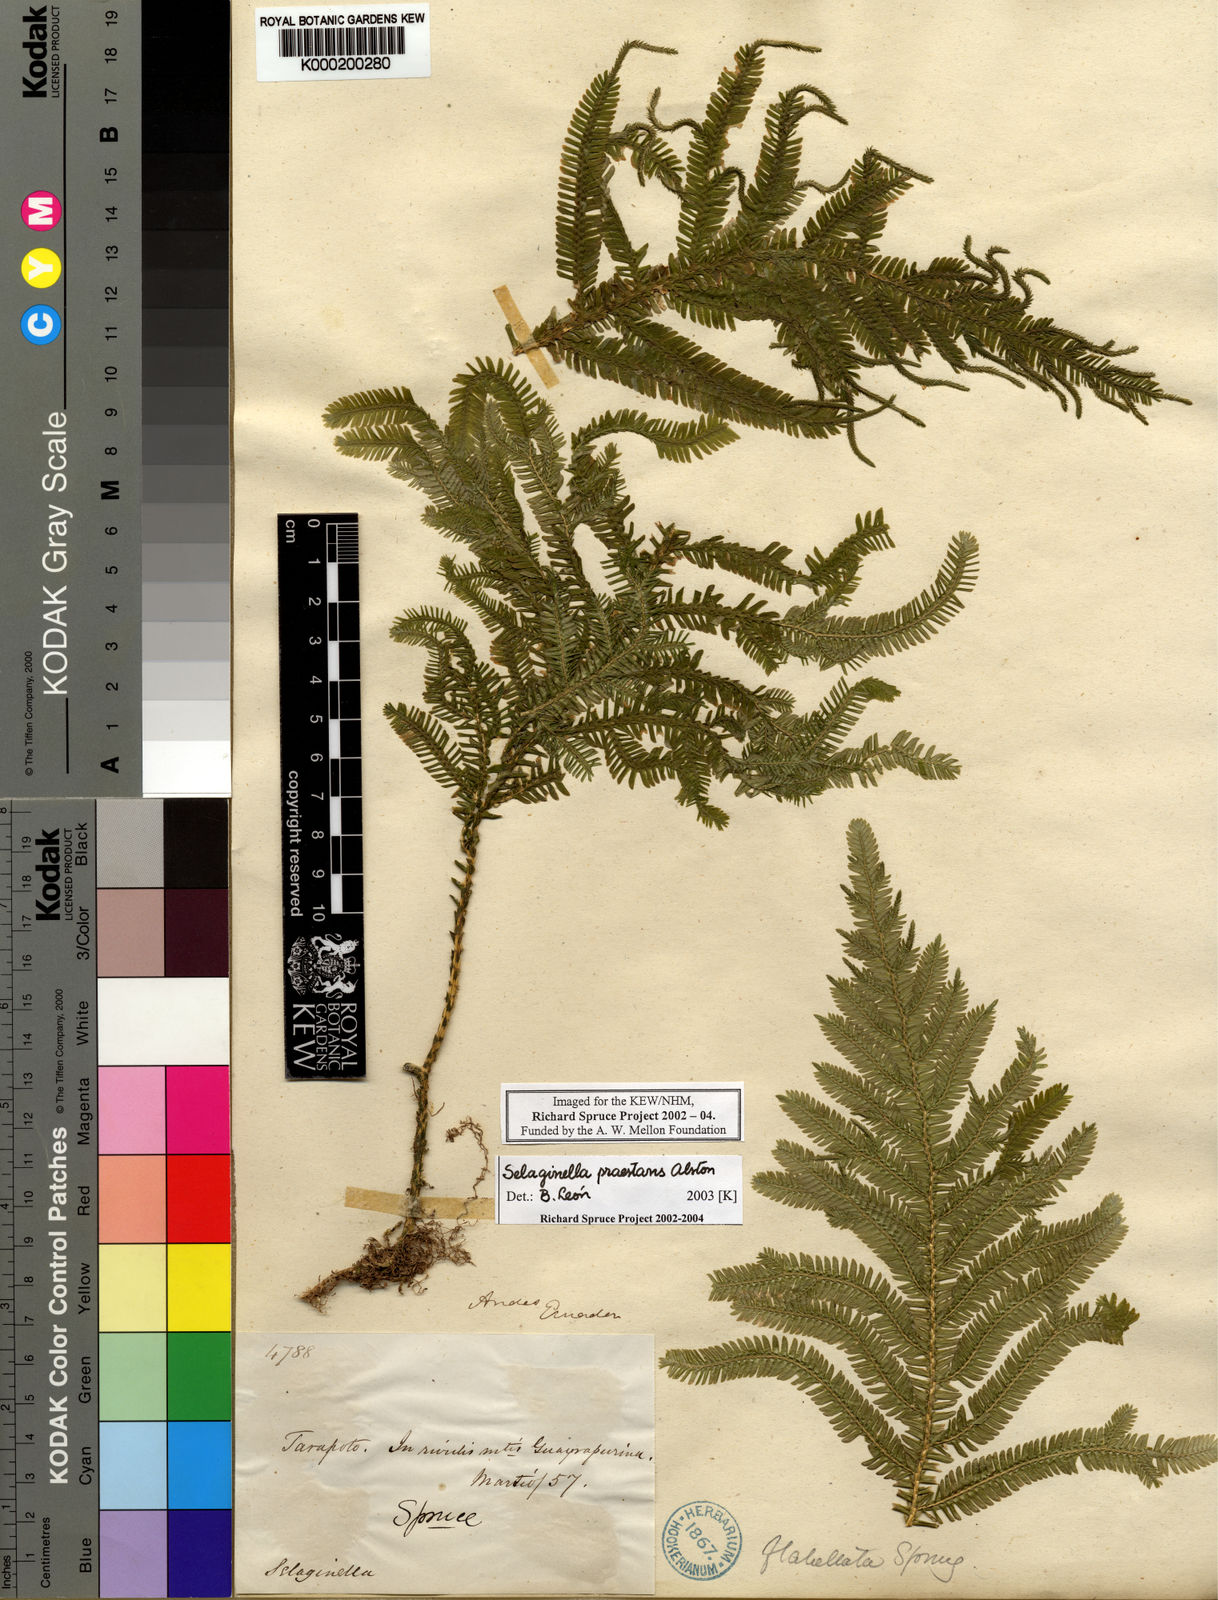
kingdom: Plantae
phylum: Tracheophyta
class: Lycopodiopsida
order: Selaginellales
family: Selaginellaceae
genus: Selaginella
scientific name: Selaginella praestans
